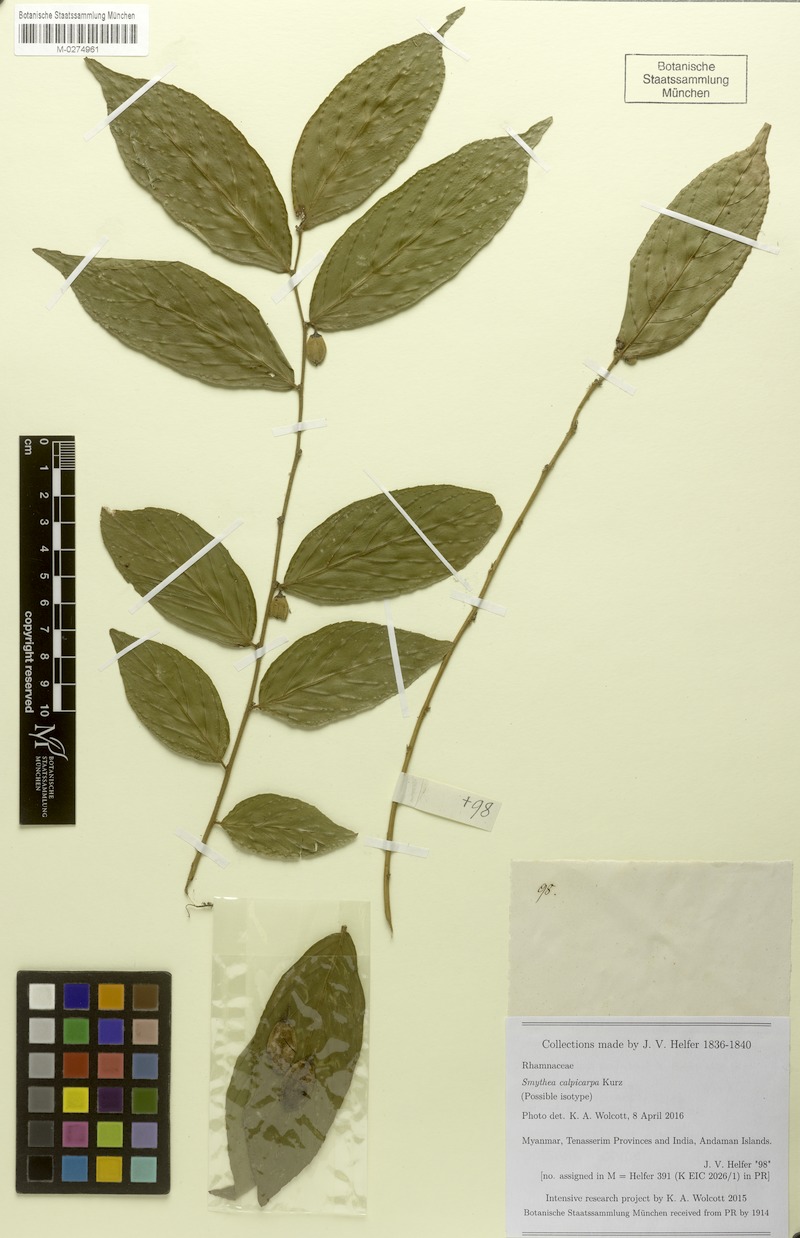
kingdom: Plantae
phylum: Tracheophyta
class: Magnoliopsida
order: Rosales
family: Rhamnaceae
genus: Smythea
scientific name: Smythea calpicarpa
